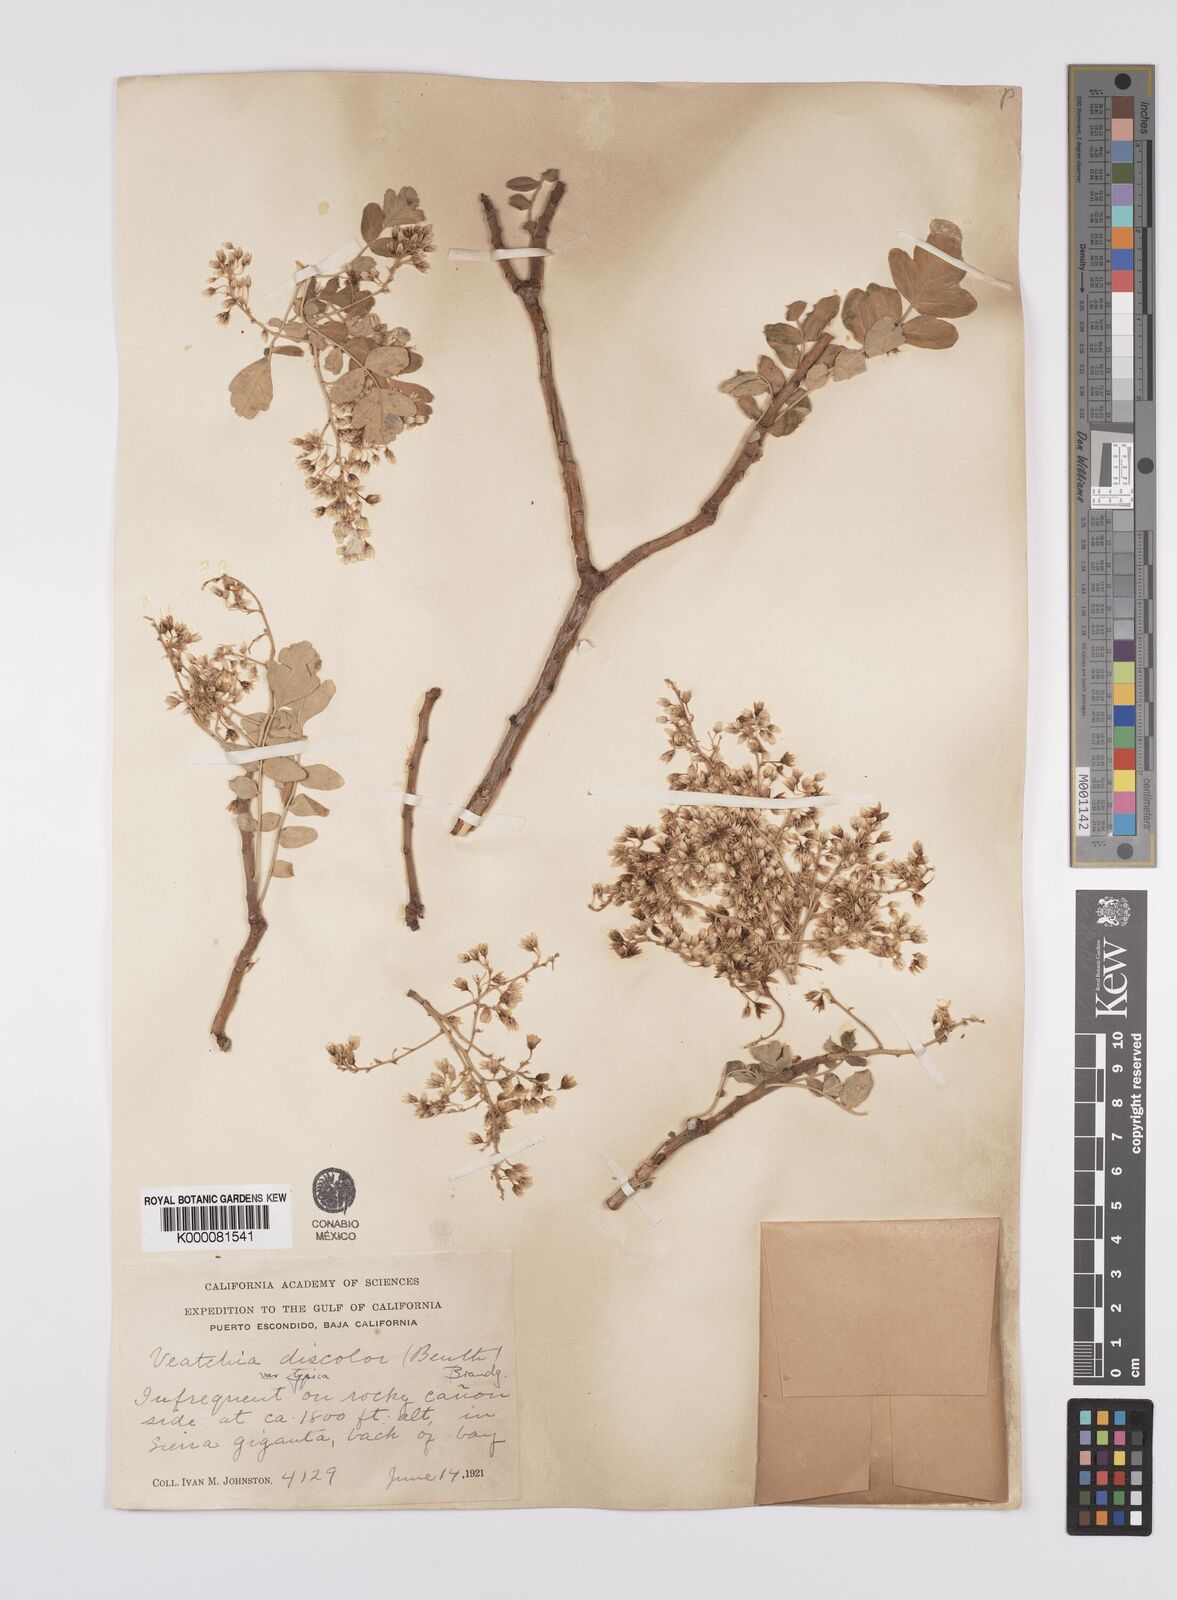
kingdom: Plantae
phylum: Tracheophyta
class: Magnoliopsida
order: Sapindales
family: Anacardiaceae
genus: Pachycormus
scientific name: Pachycormus
